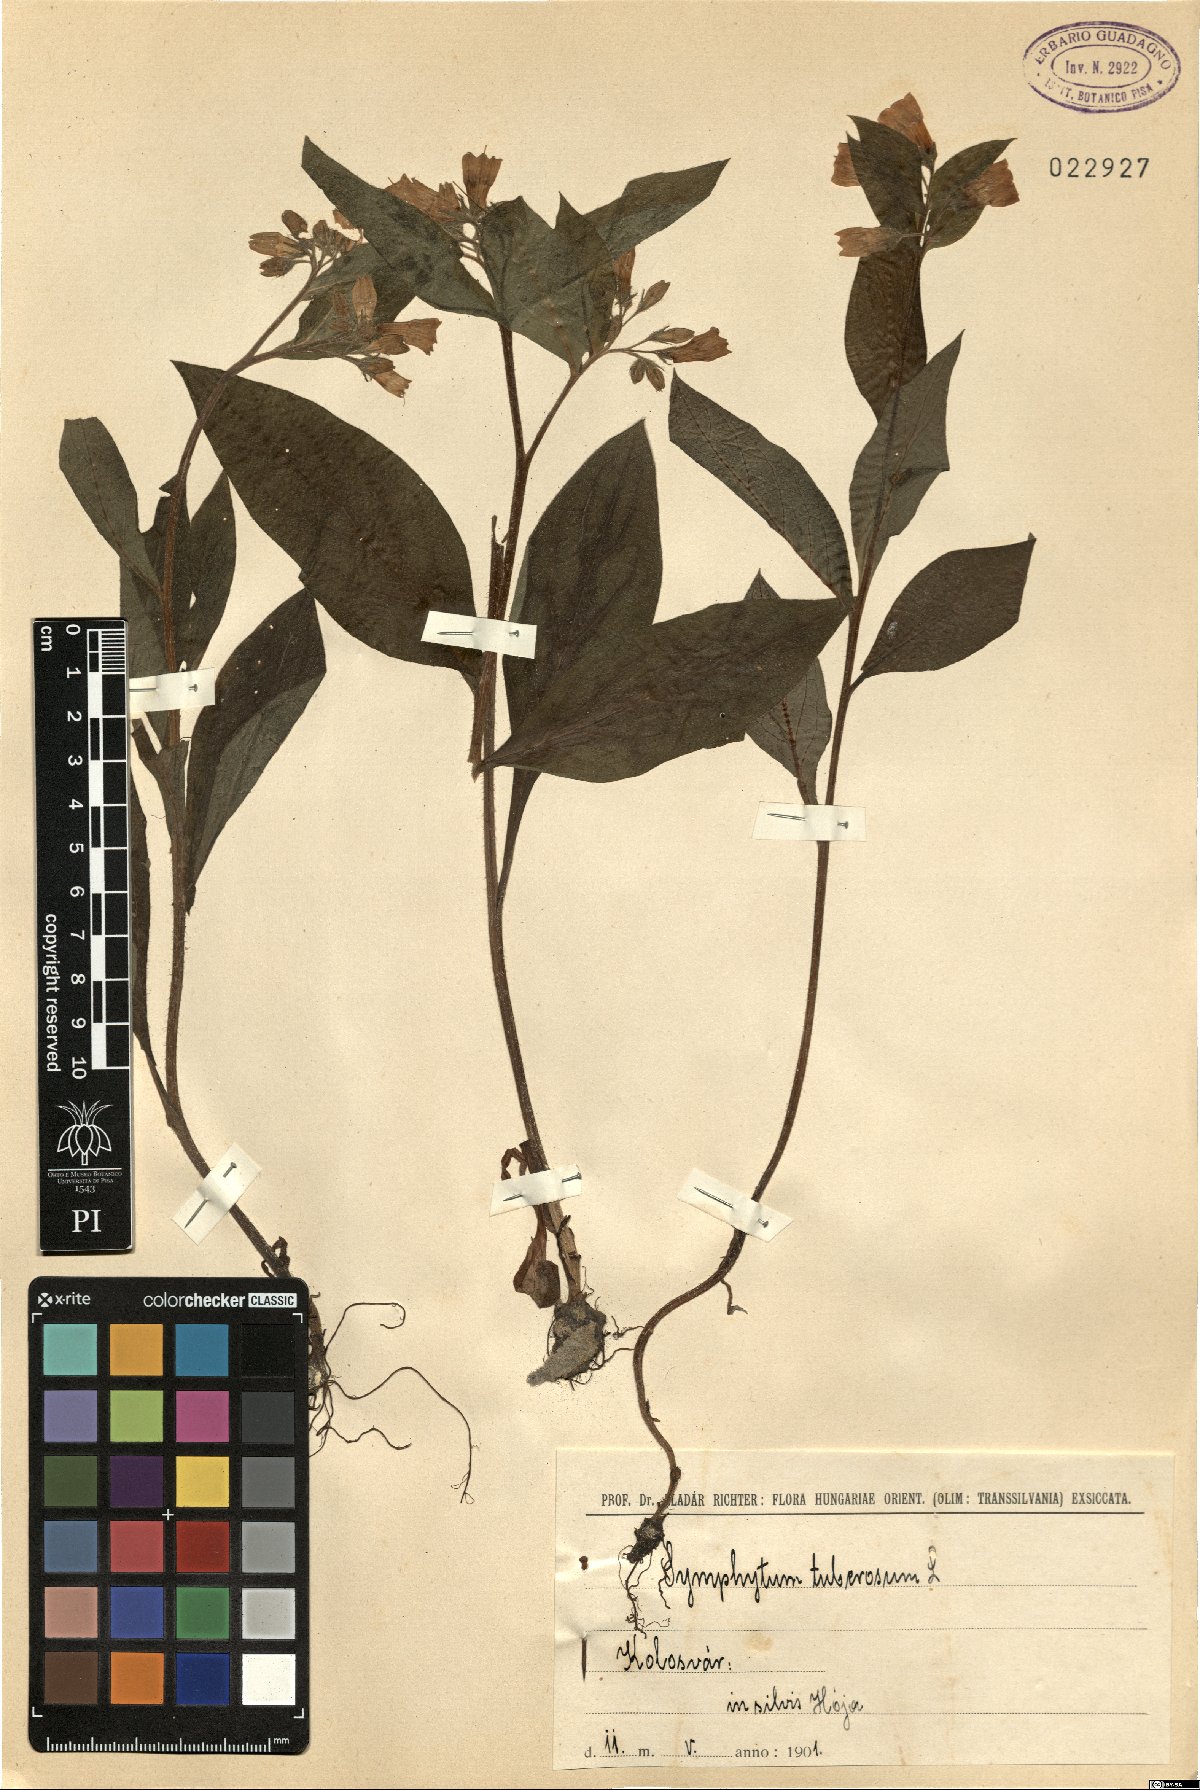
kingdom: Plantae
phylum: Tracheophyta
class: Magnoliopsida
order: Boraginales
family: Boraginaceae
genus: Symphytum
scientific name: Symphytum tuberosum
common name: Tuberous comfrey
